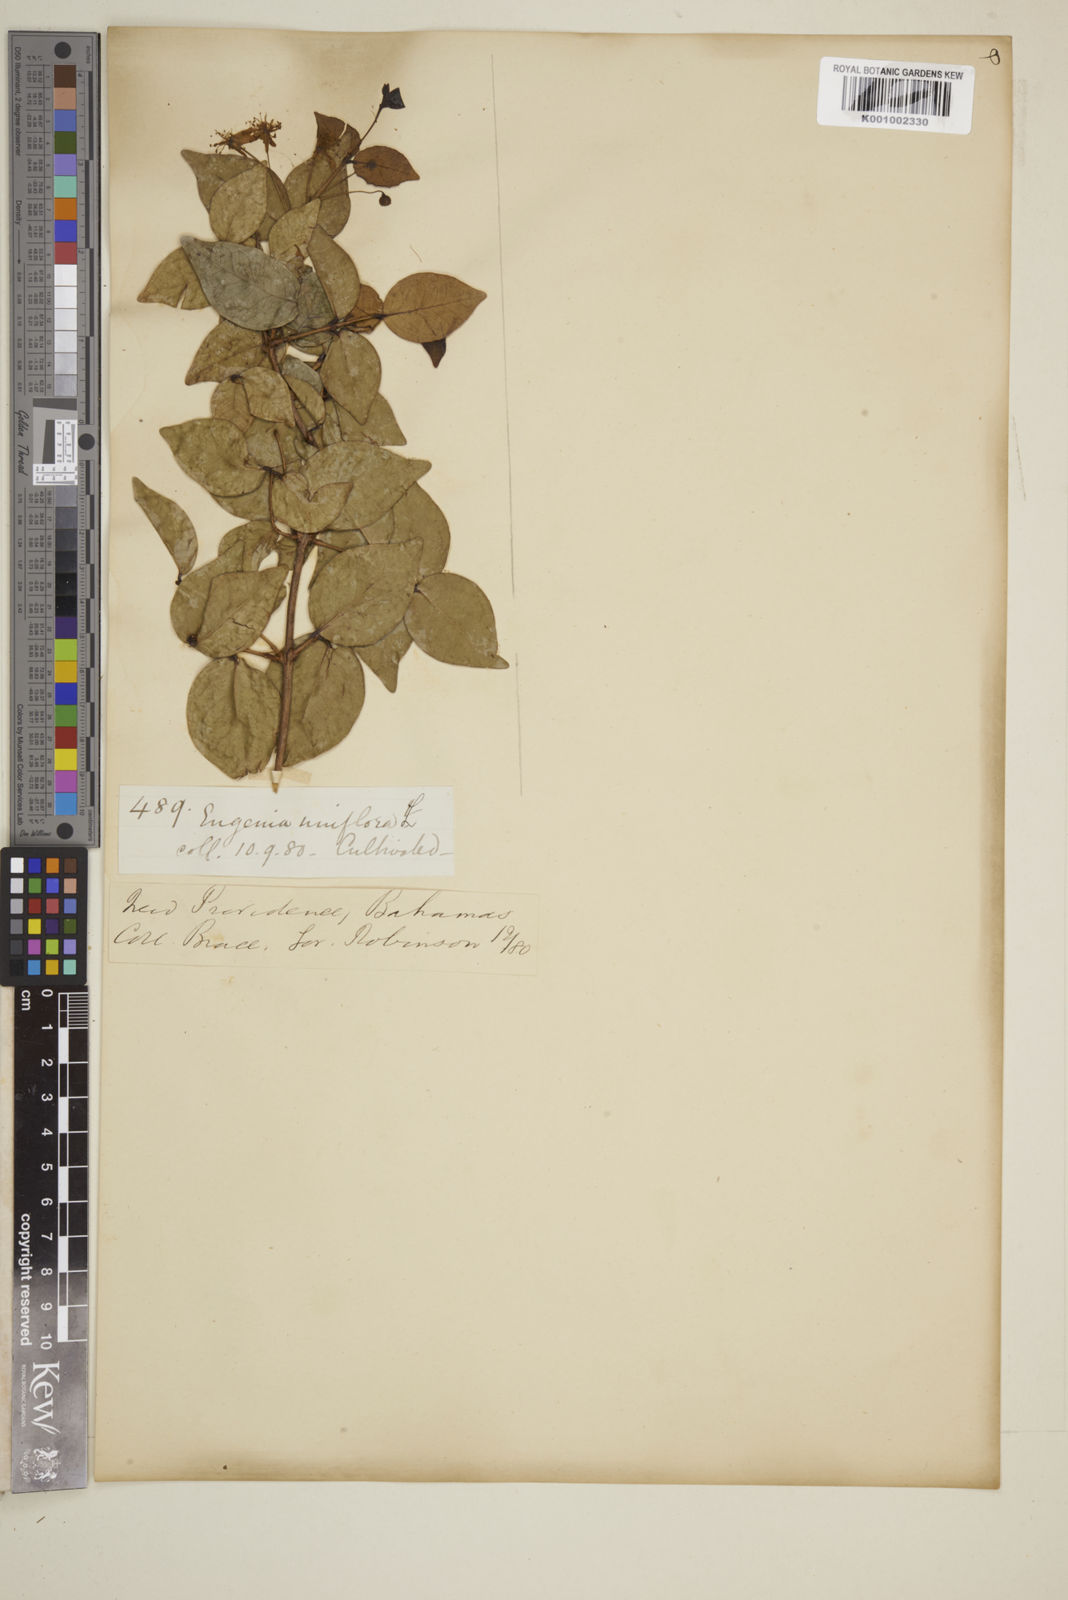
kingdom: Plantae
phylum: Tracheophyta
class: Magnoliopsida
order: Myrtales
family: Myrtaceae
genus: Eugenia
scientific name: Eugenia uniflora
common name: Surinam cherry
